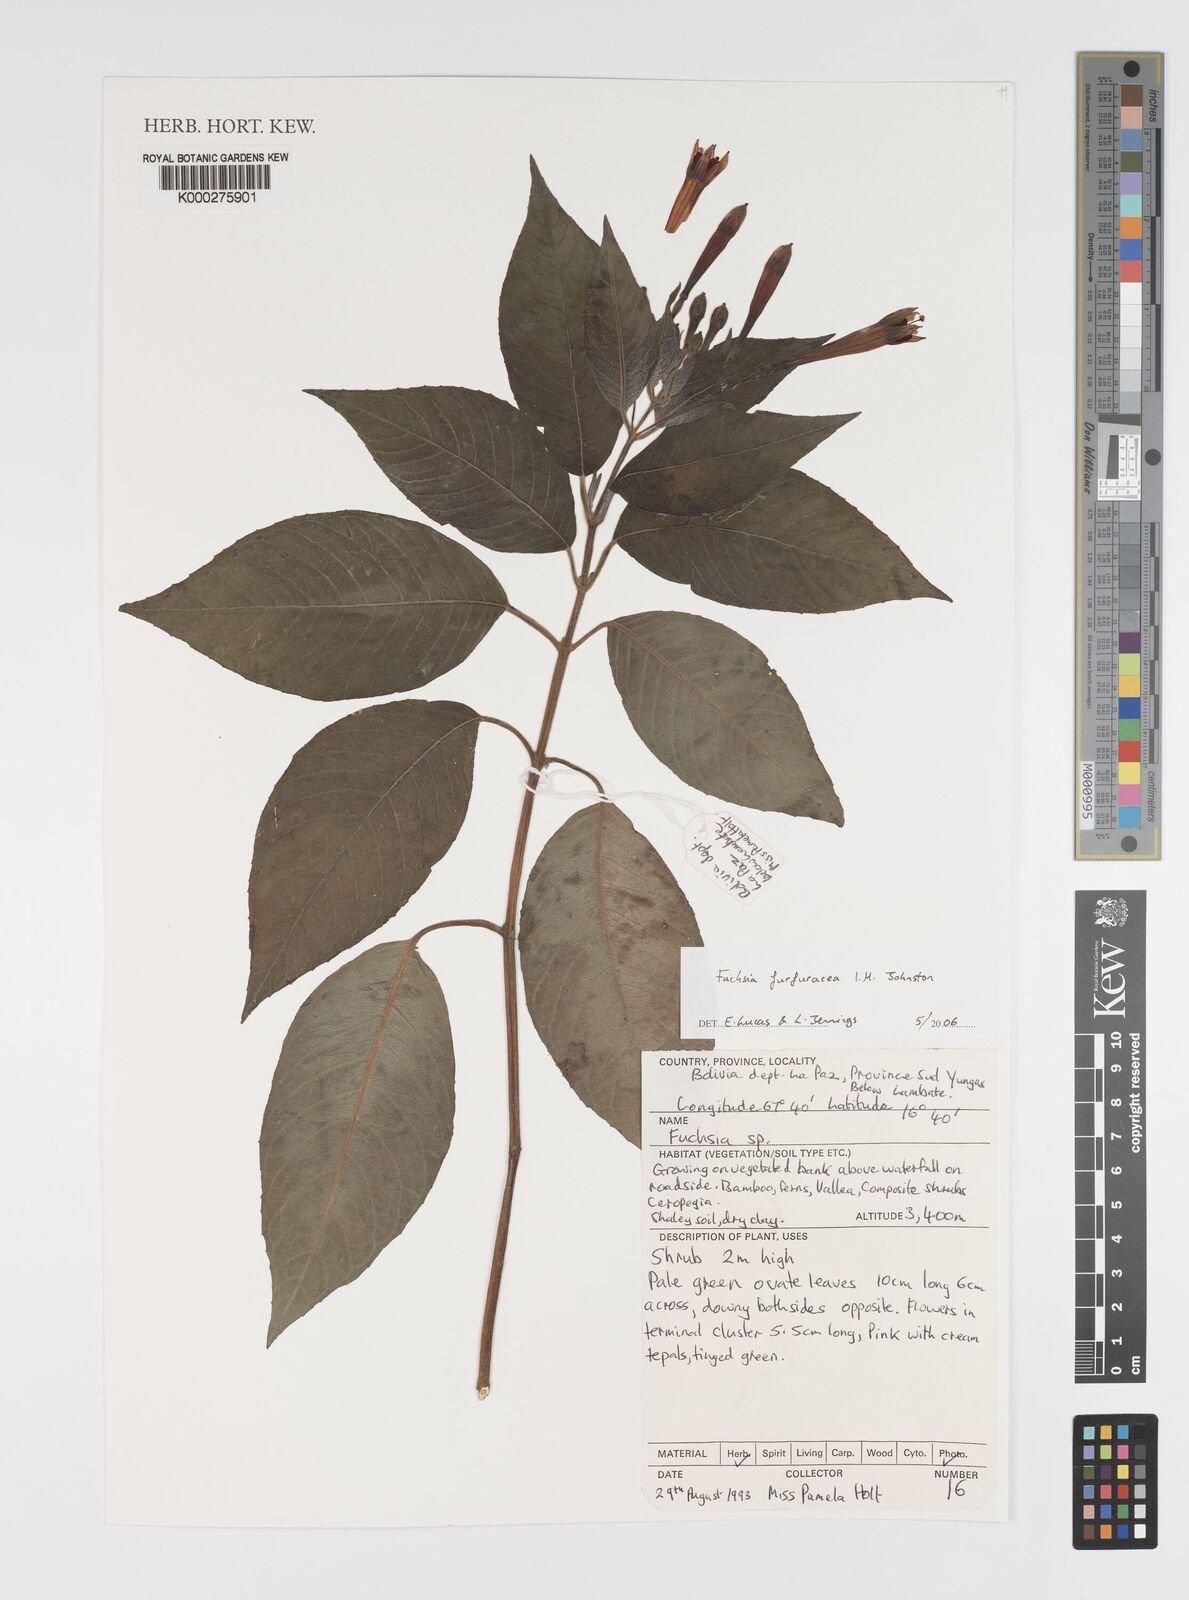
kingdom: Plantae
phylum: Tracheophyta
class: Magnoliopsida
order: Myrtales
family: Onagraceae
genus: Fuchsia
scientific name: Fuchsia furfuracea
